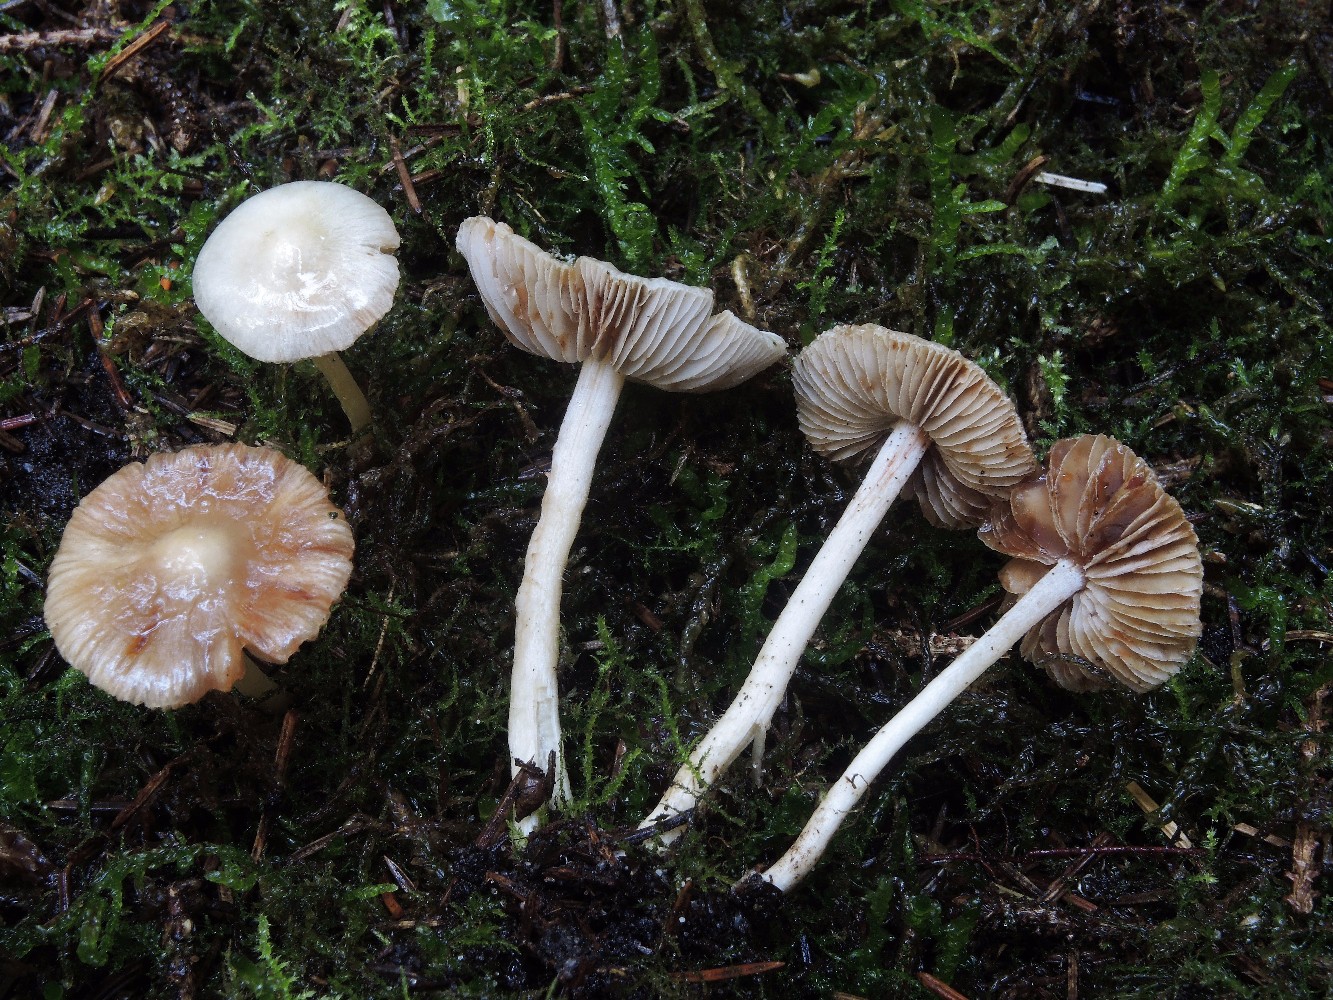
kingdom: Fungi
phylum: Basidiomycota
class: Agaricomycetes
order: Agaricales
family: Inocybaceae
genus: Inocybe
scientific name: Inocybe whitei
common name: rødmende trævlhat
